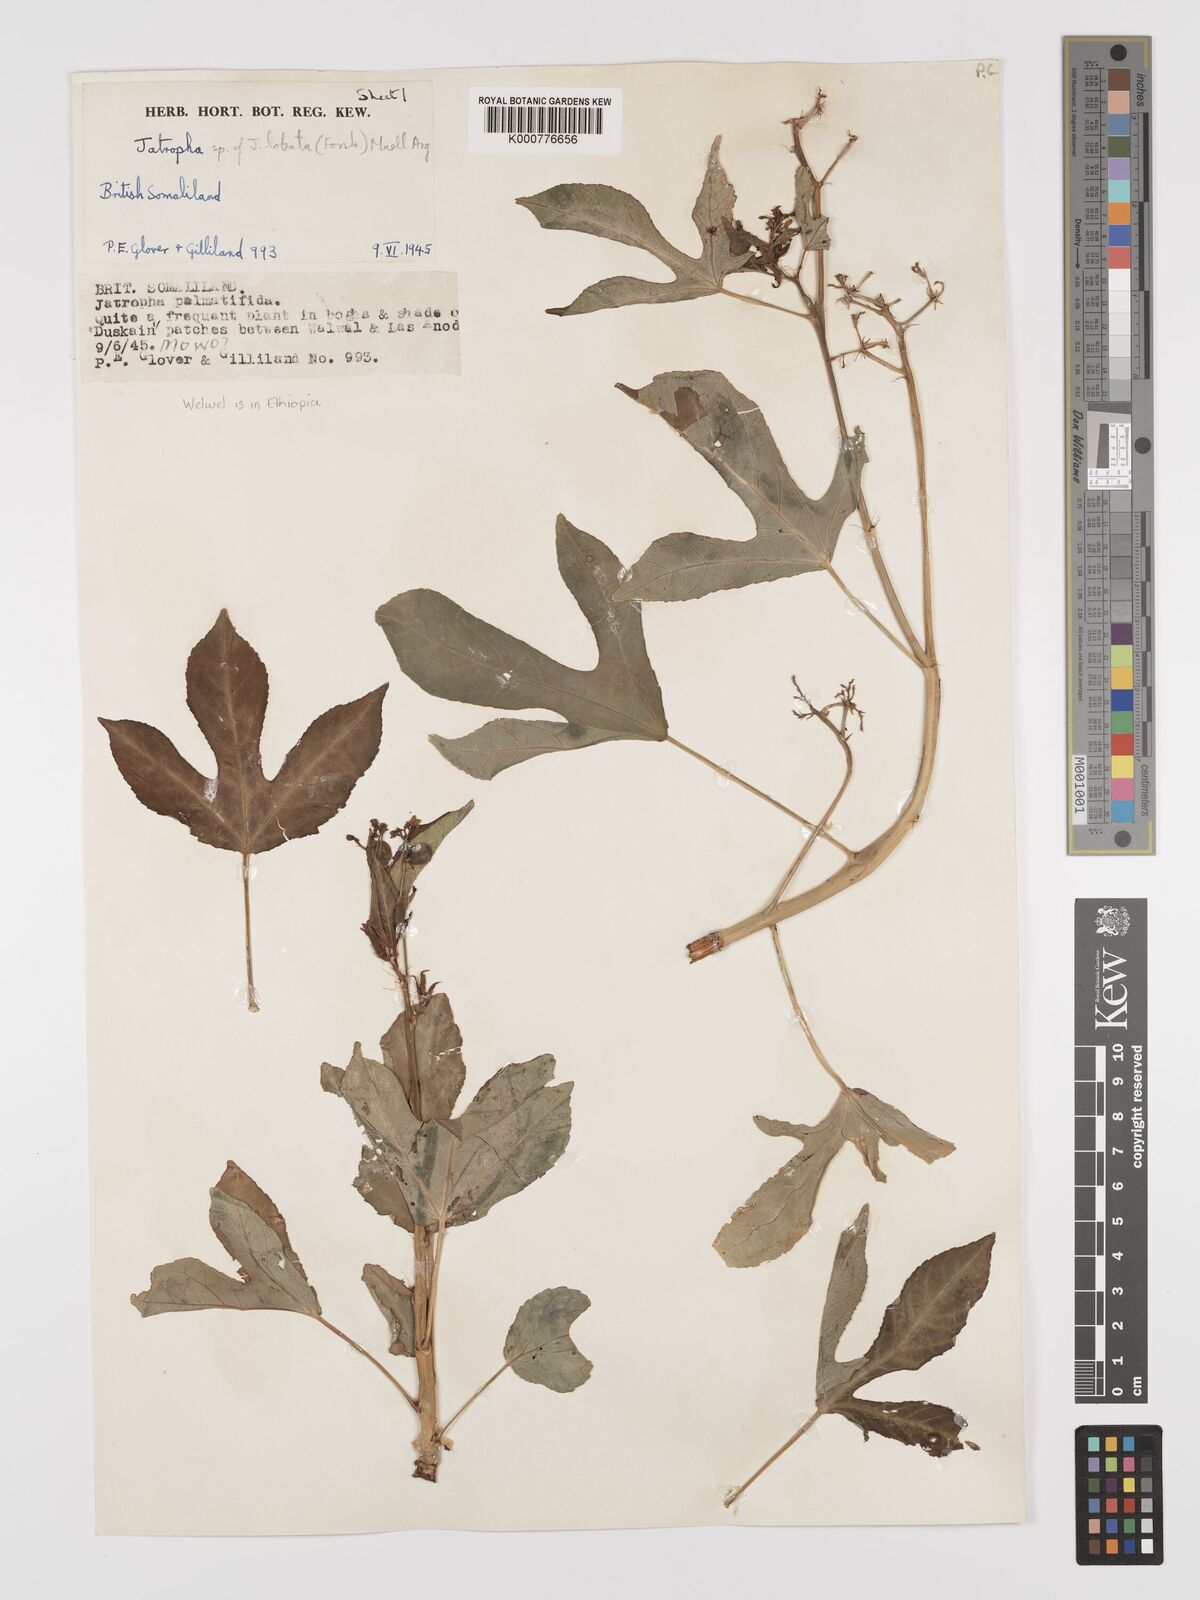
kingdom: Plantae
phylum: Tracheophyta
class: Magnoliopsida
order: Malpighiales
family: Euphorbiaceae
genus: Jatropha
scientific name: Jatropha trifida
